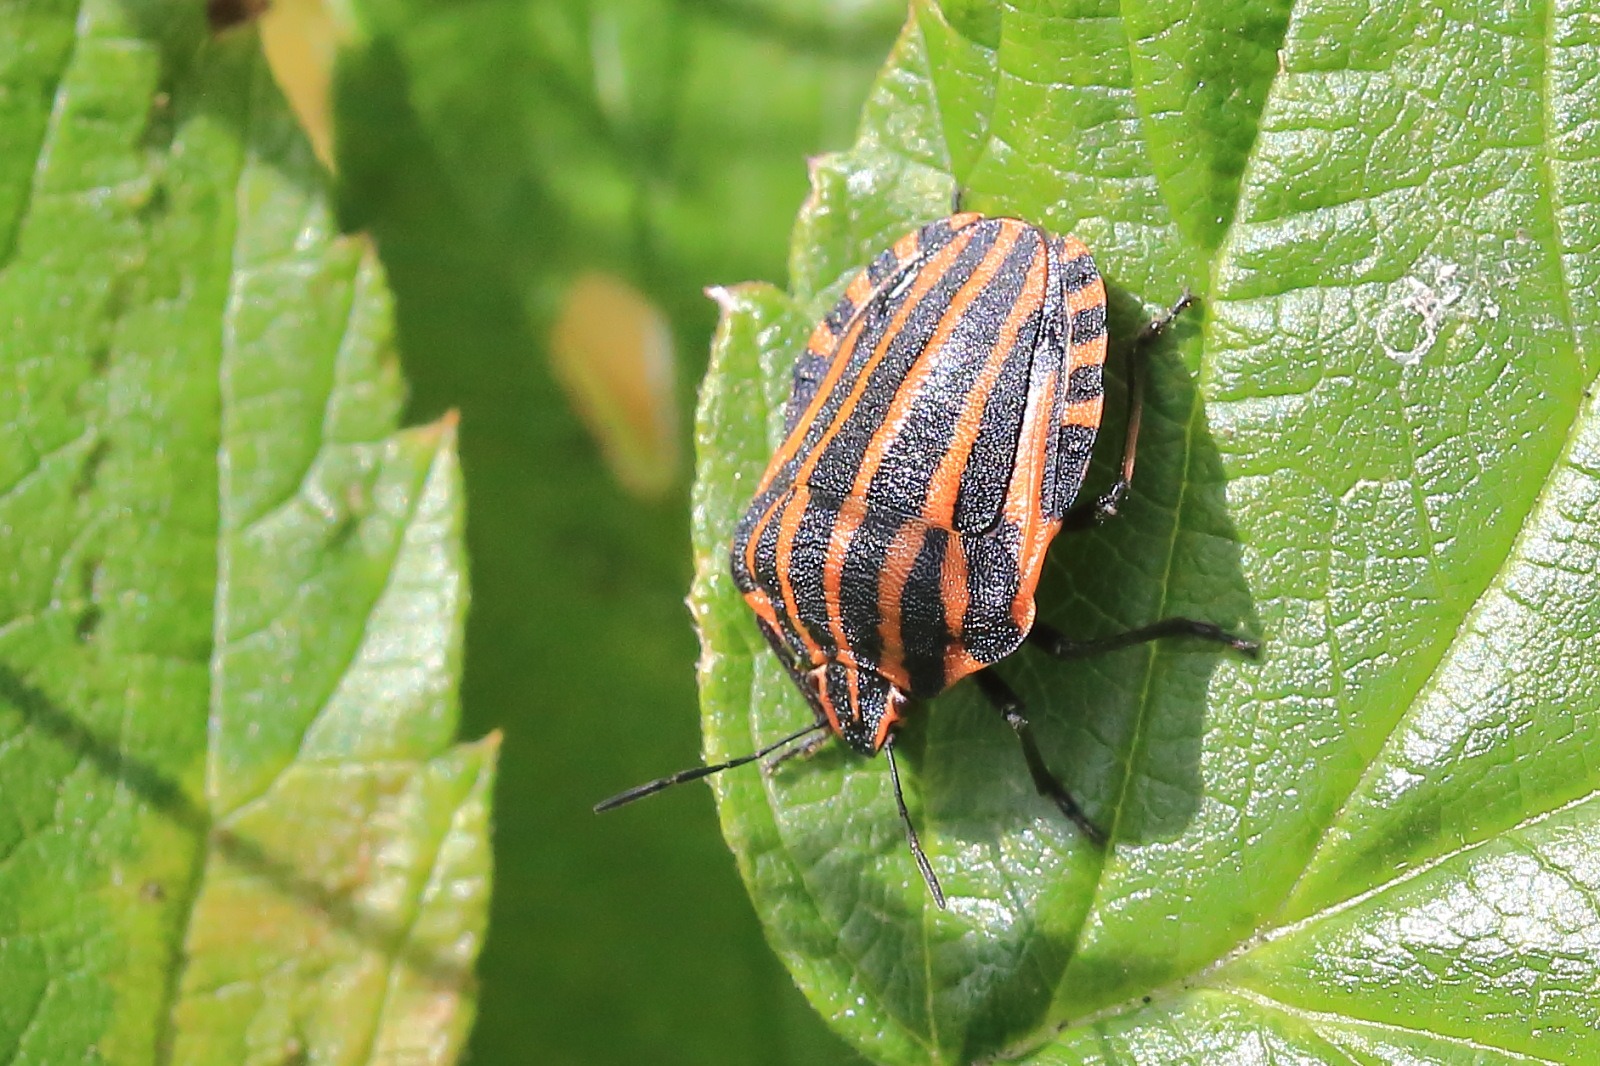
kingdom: Animalia
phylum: Arthropoda
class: Insecta
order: Hemiptera
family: Pentatomidae
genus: Graphosoma
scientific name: Graphosoma italicum
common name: Stribetæge
